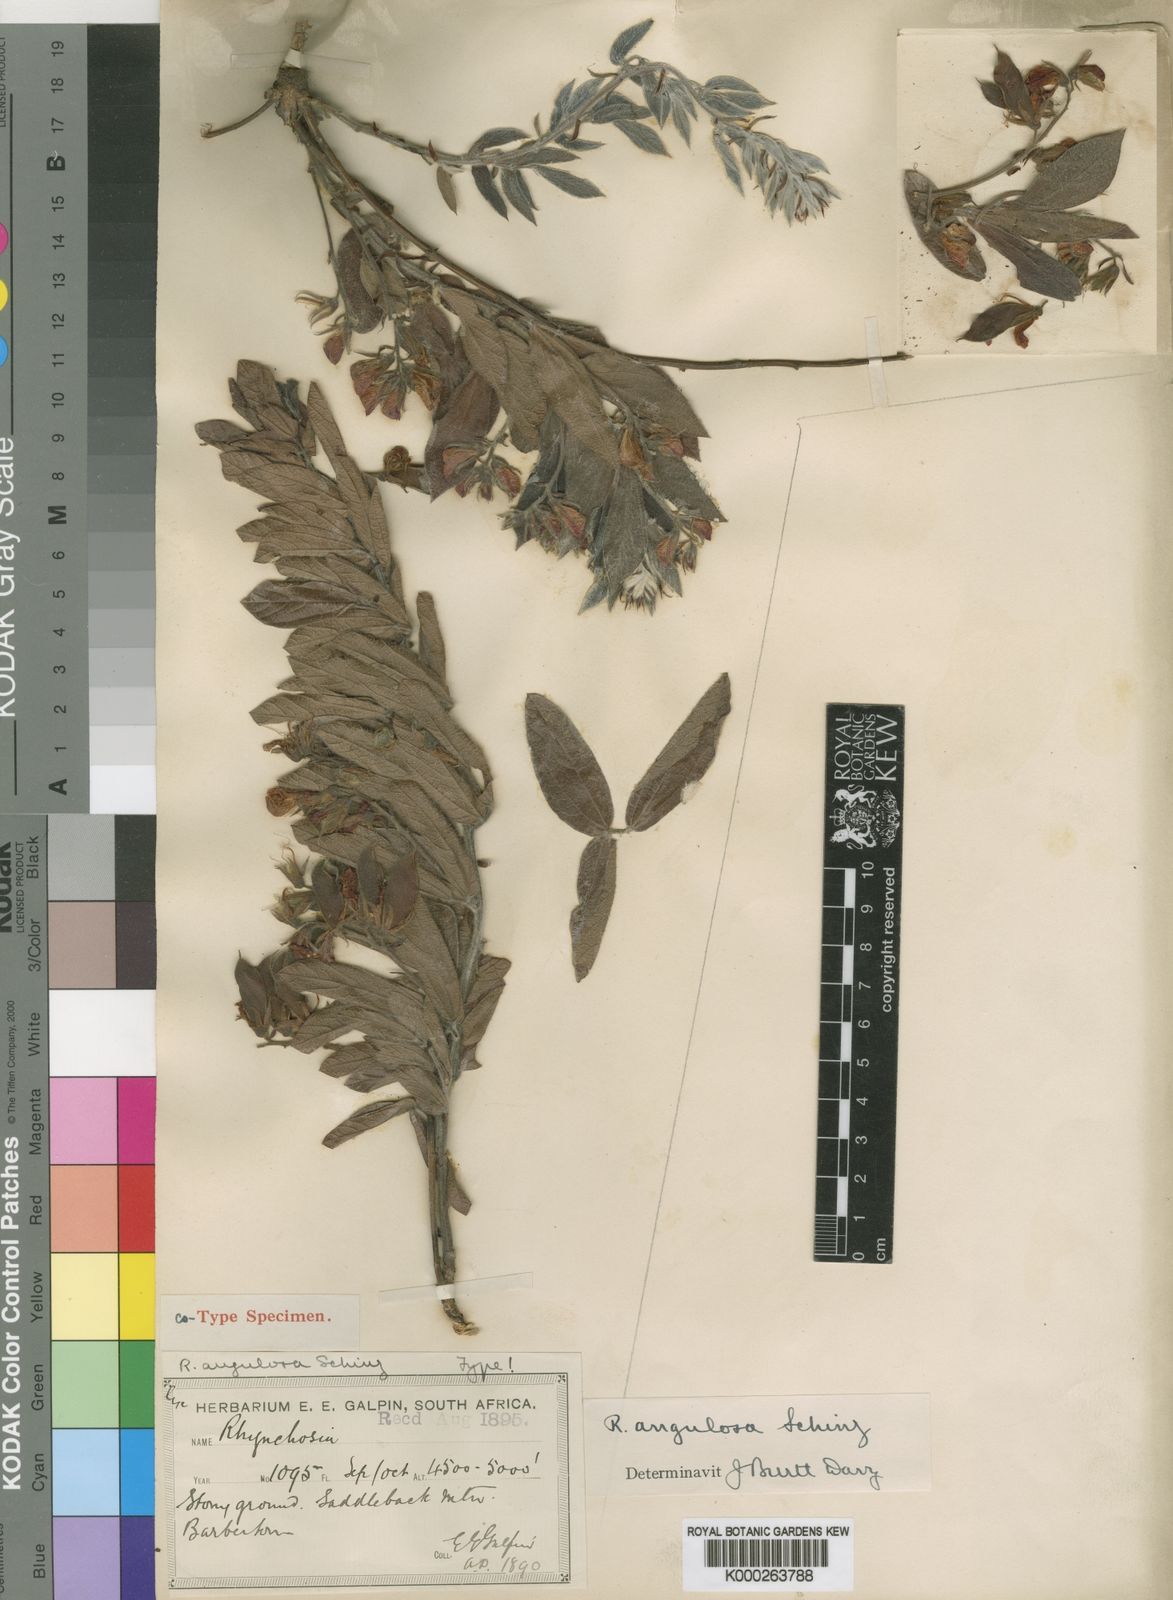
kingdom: Plantae
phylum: Tracheophyta
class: Magnoliopsida
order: Fabales
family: Fabaceae
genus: Rhynchosia
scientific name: Rhynchosia angulosa
